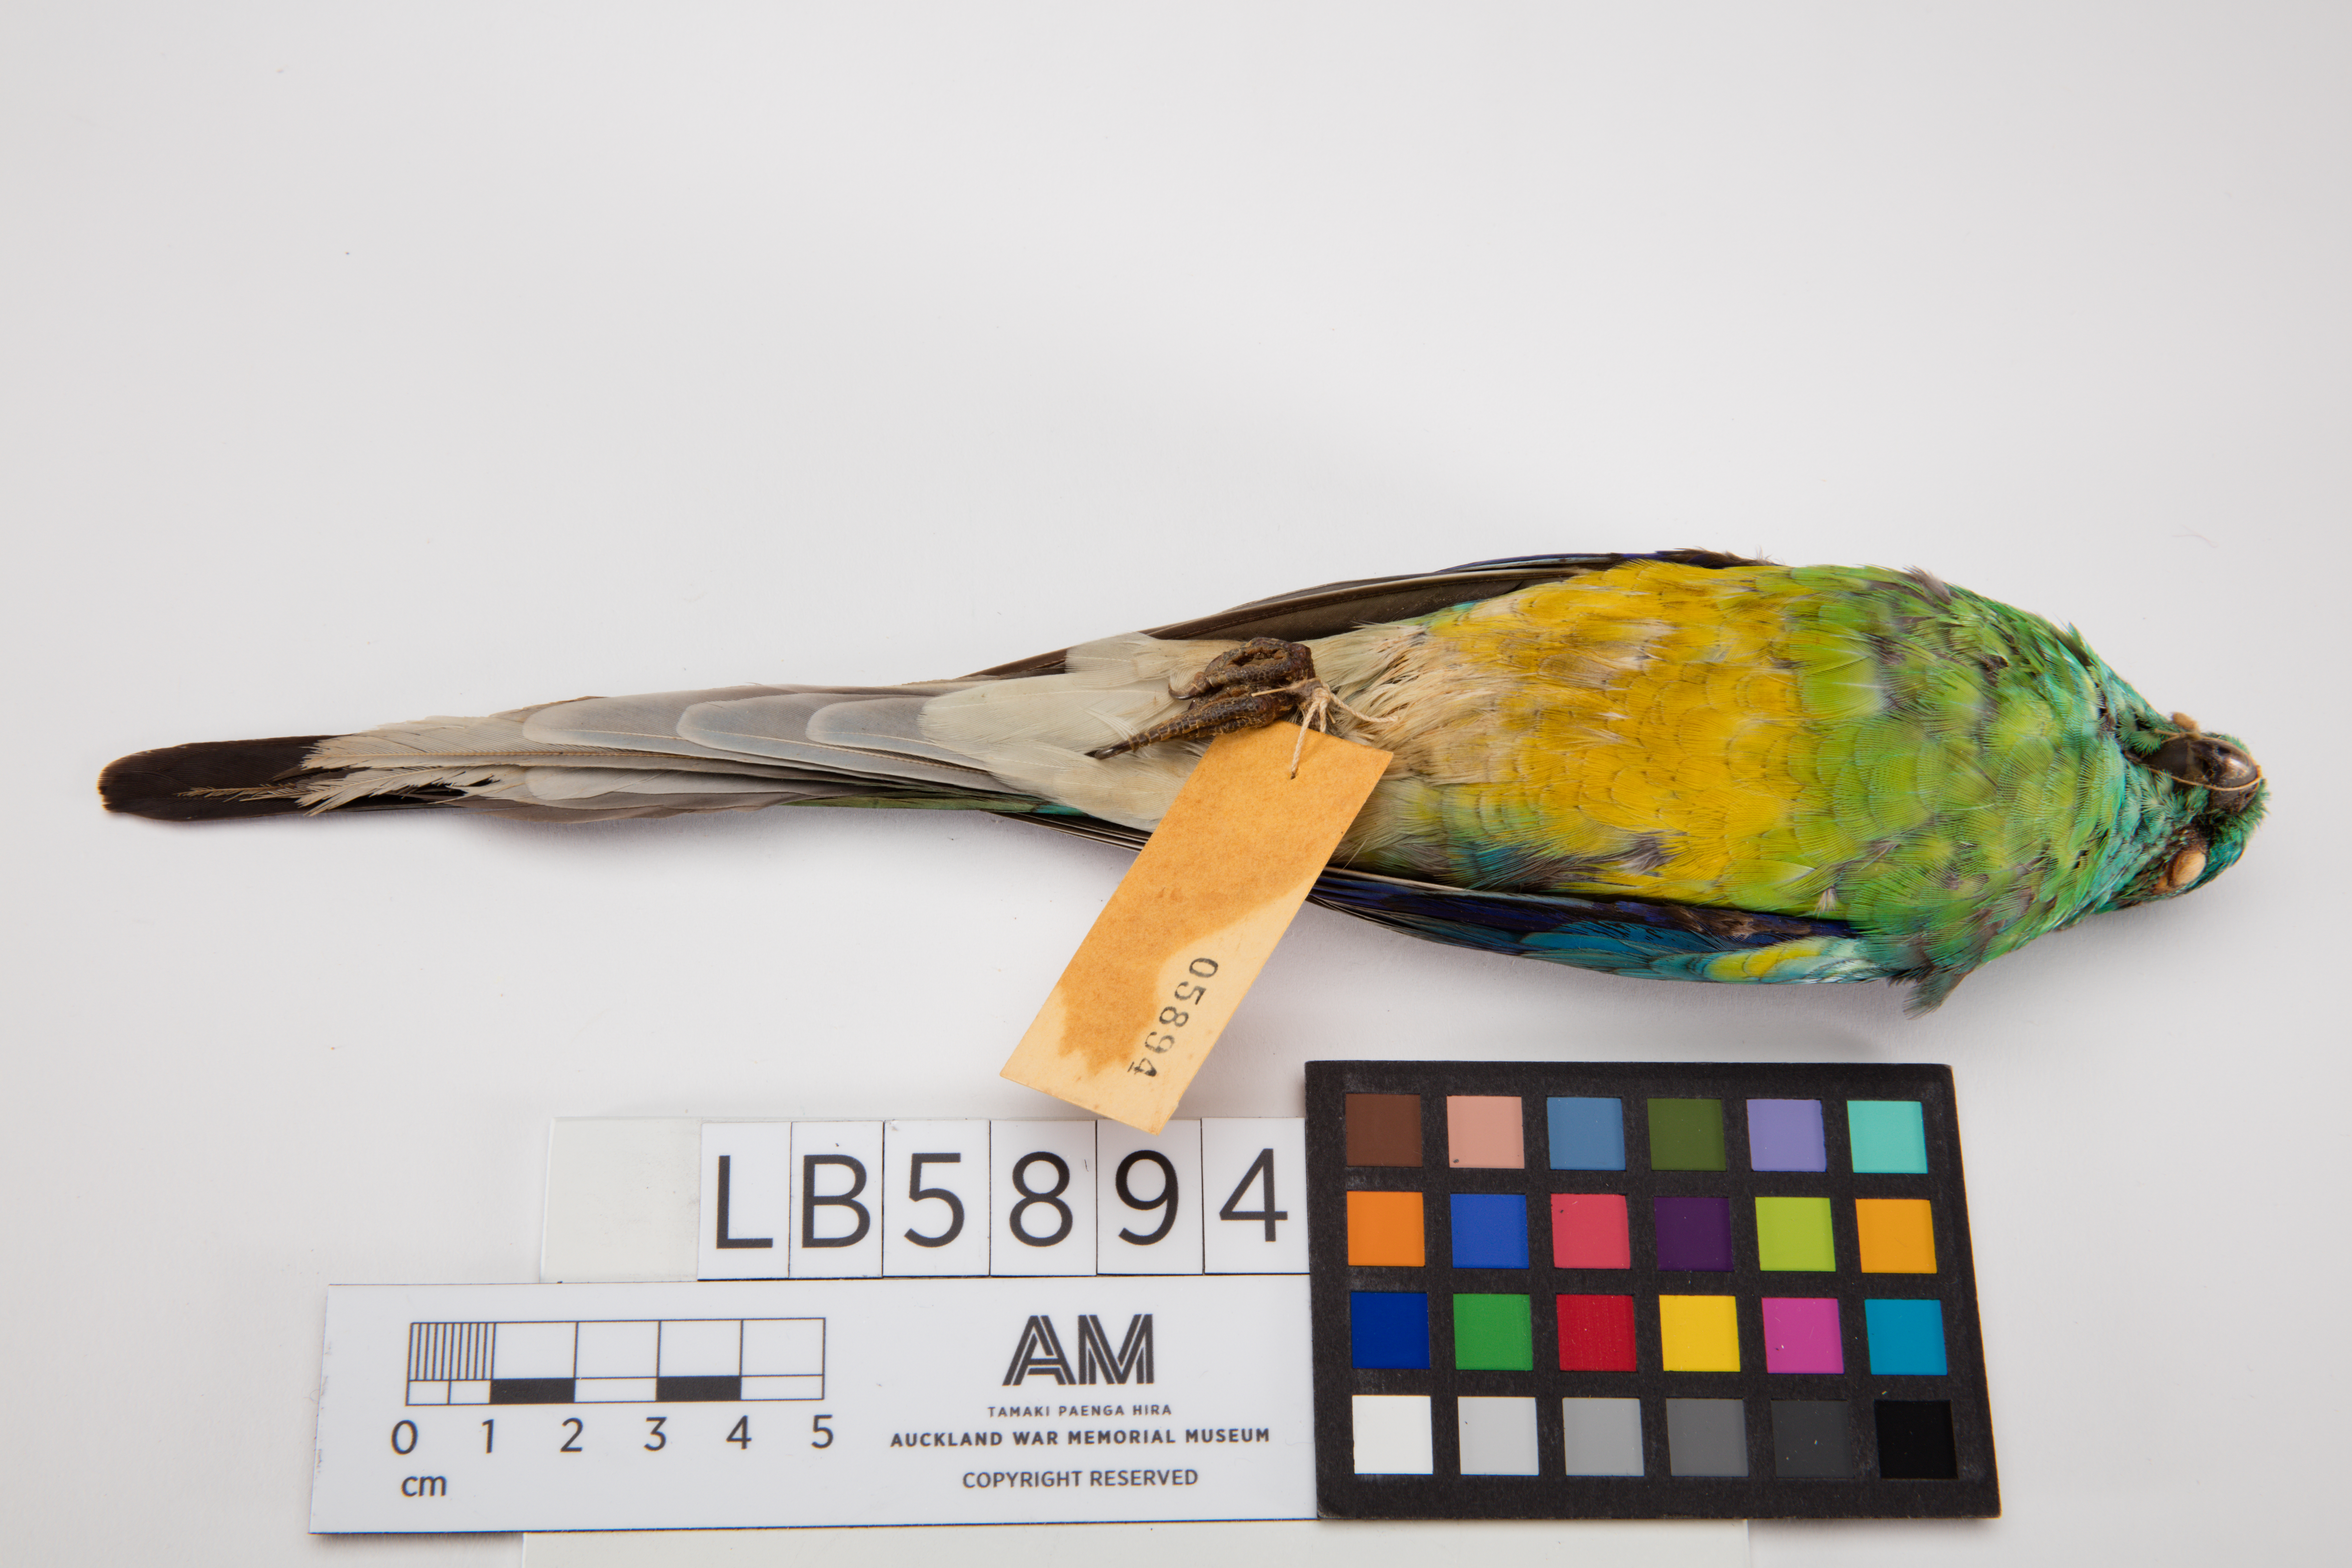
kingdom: Animalia
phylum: Chordata
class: Aves
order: Psittaciformes
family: Psittacidae
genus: Psephotus
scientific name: Psephotus haematonotus
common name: Red-rumped parrot
